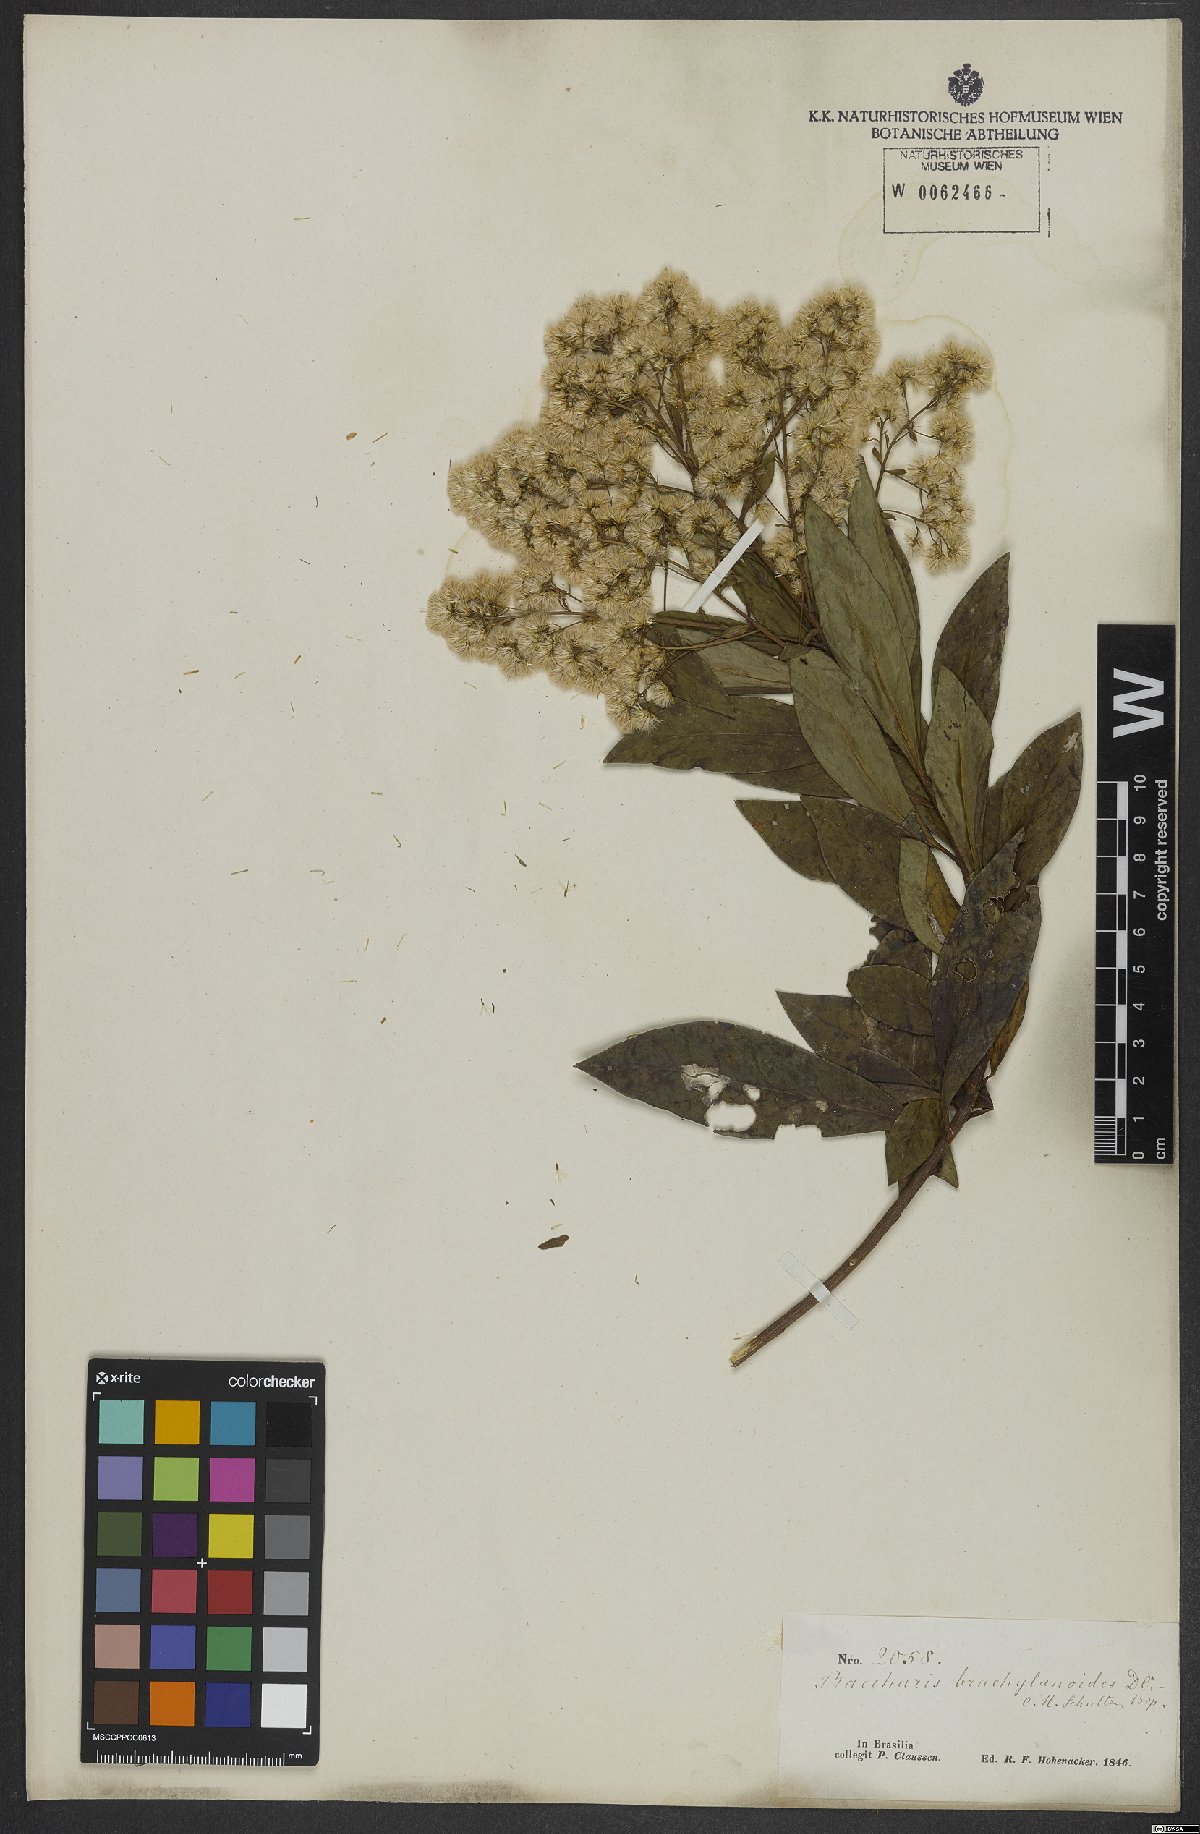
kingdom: Plantae
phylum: Tracheophyta
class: Magnoliopsida
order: Asterales
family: Asteraceae
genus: Baccharis
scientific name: Baccharis oblongifolia
